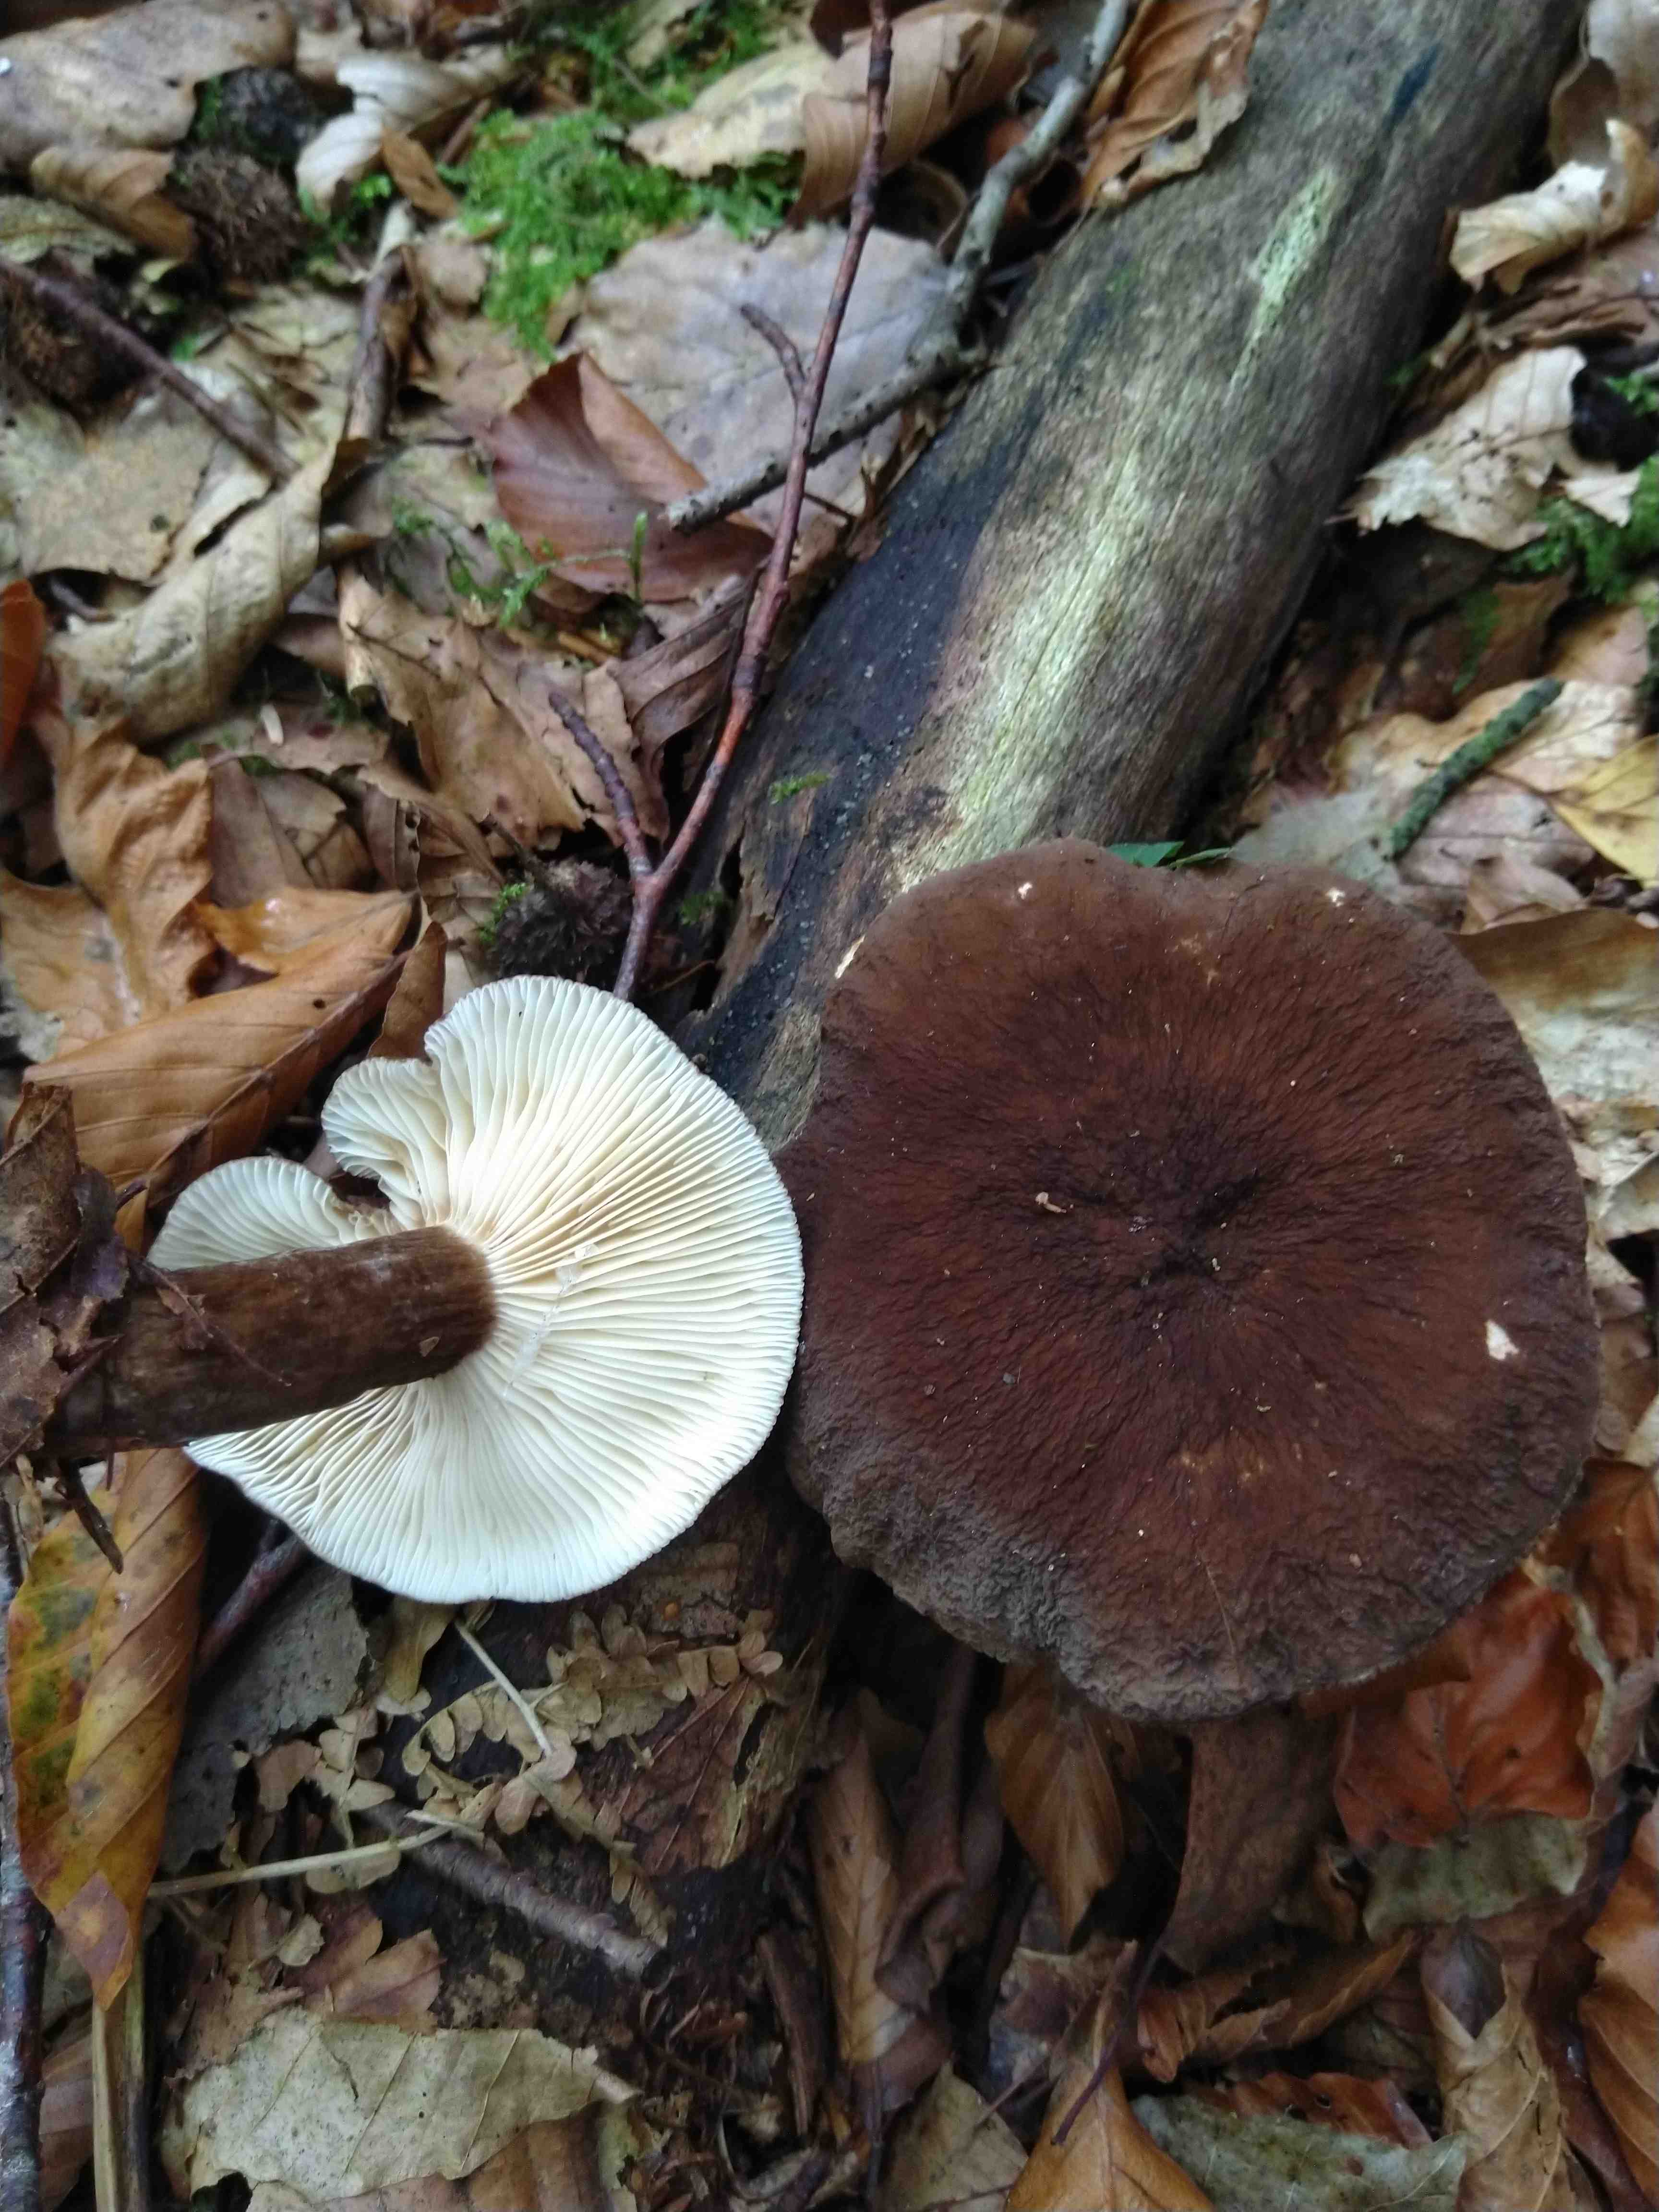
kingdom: Fungi
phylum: Basidiomycota
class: Agaricomycetes
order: Russulales
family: Russulaceae
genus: Lactarius
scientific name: Lactarius lignyotus
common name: fløjls-mælkehat
